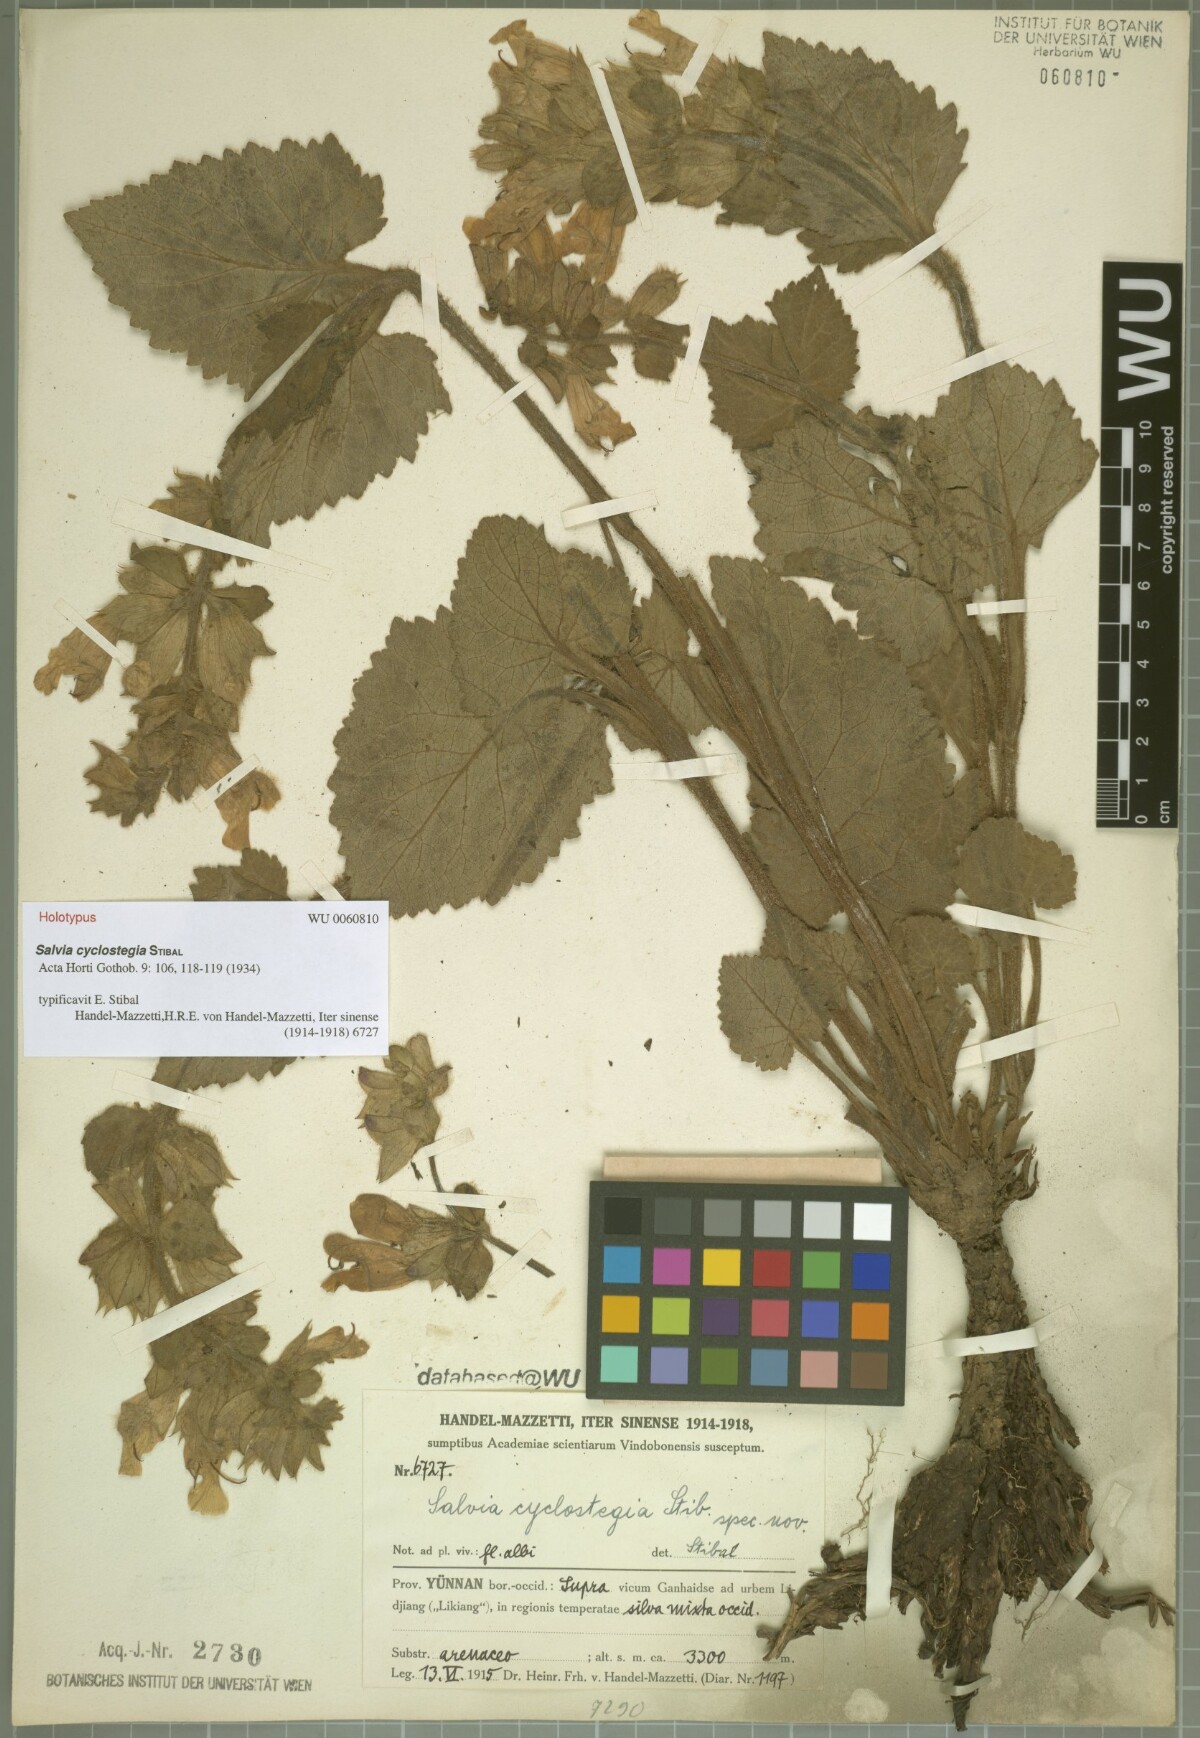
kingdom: Plantae
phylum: Tracheophyta
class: Magnoliopsida
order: Lamiales
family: Lamiaceae
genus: Salvia
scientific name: Salvia cyclostegia
